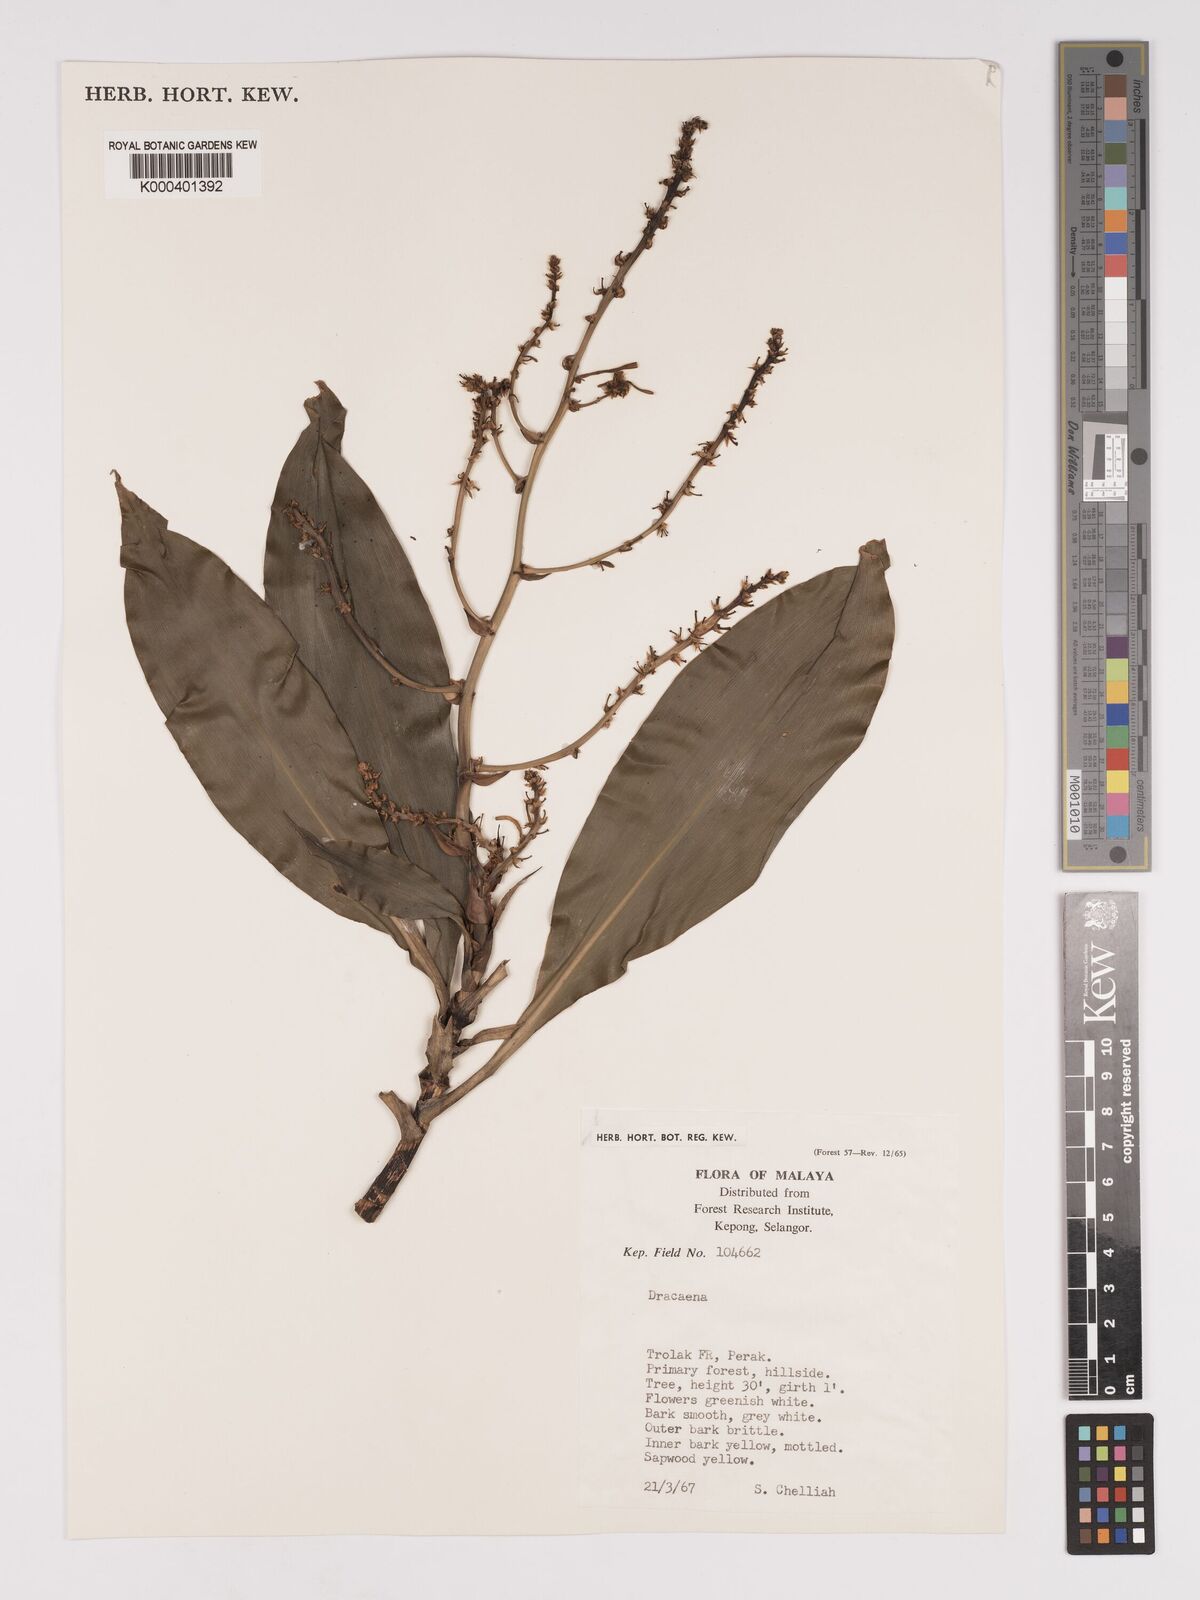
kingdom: Plantae
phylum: Tracheophyta
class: Liliopsida
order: Asparagales
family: Asparagaceae
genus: Dracaena
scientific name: Dracaena
